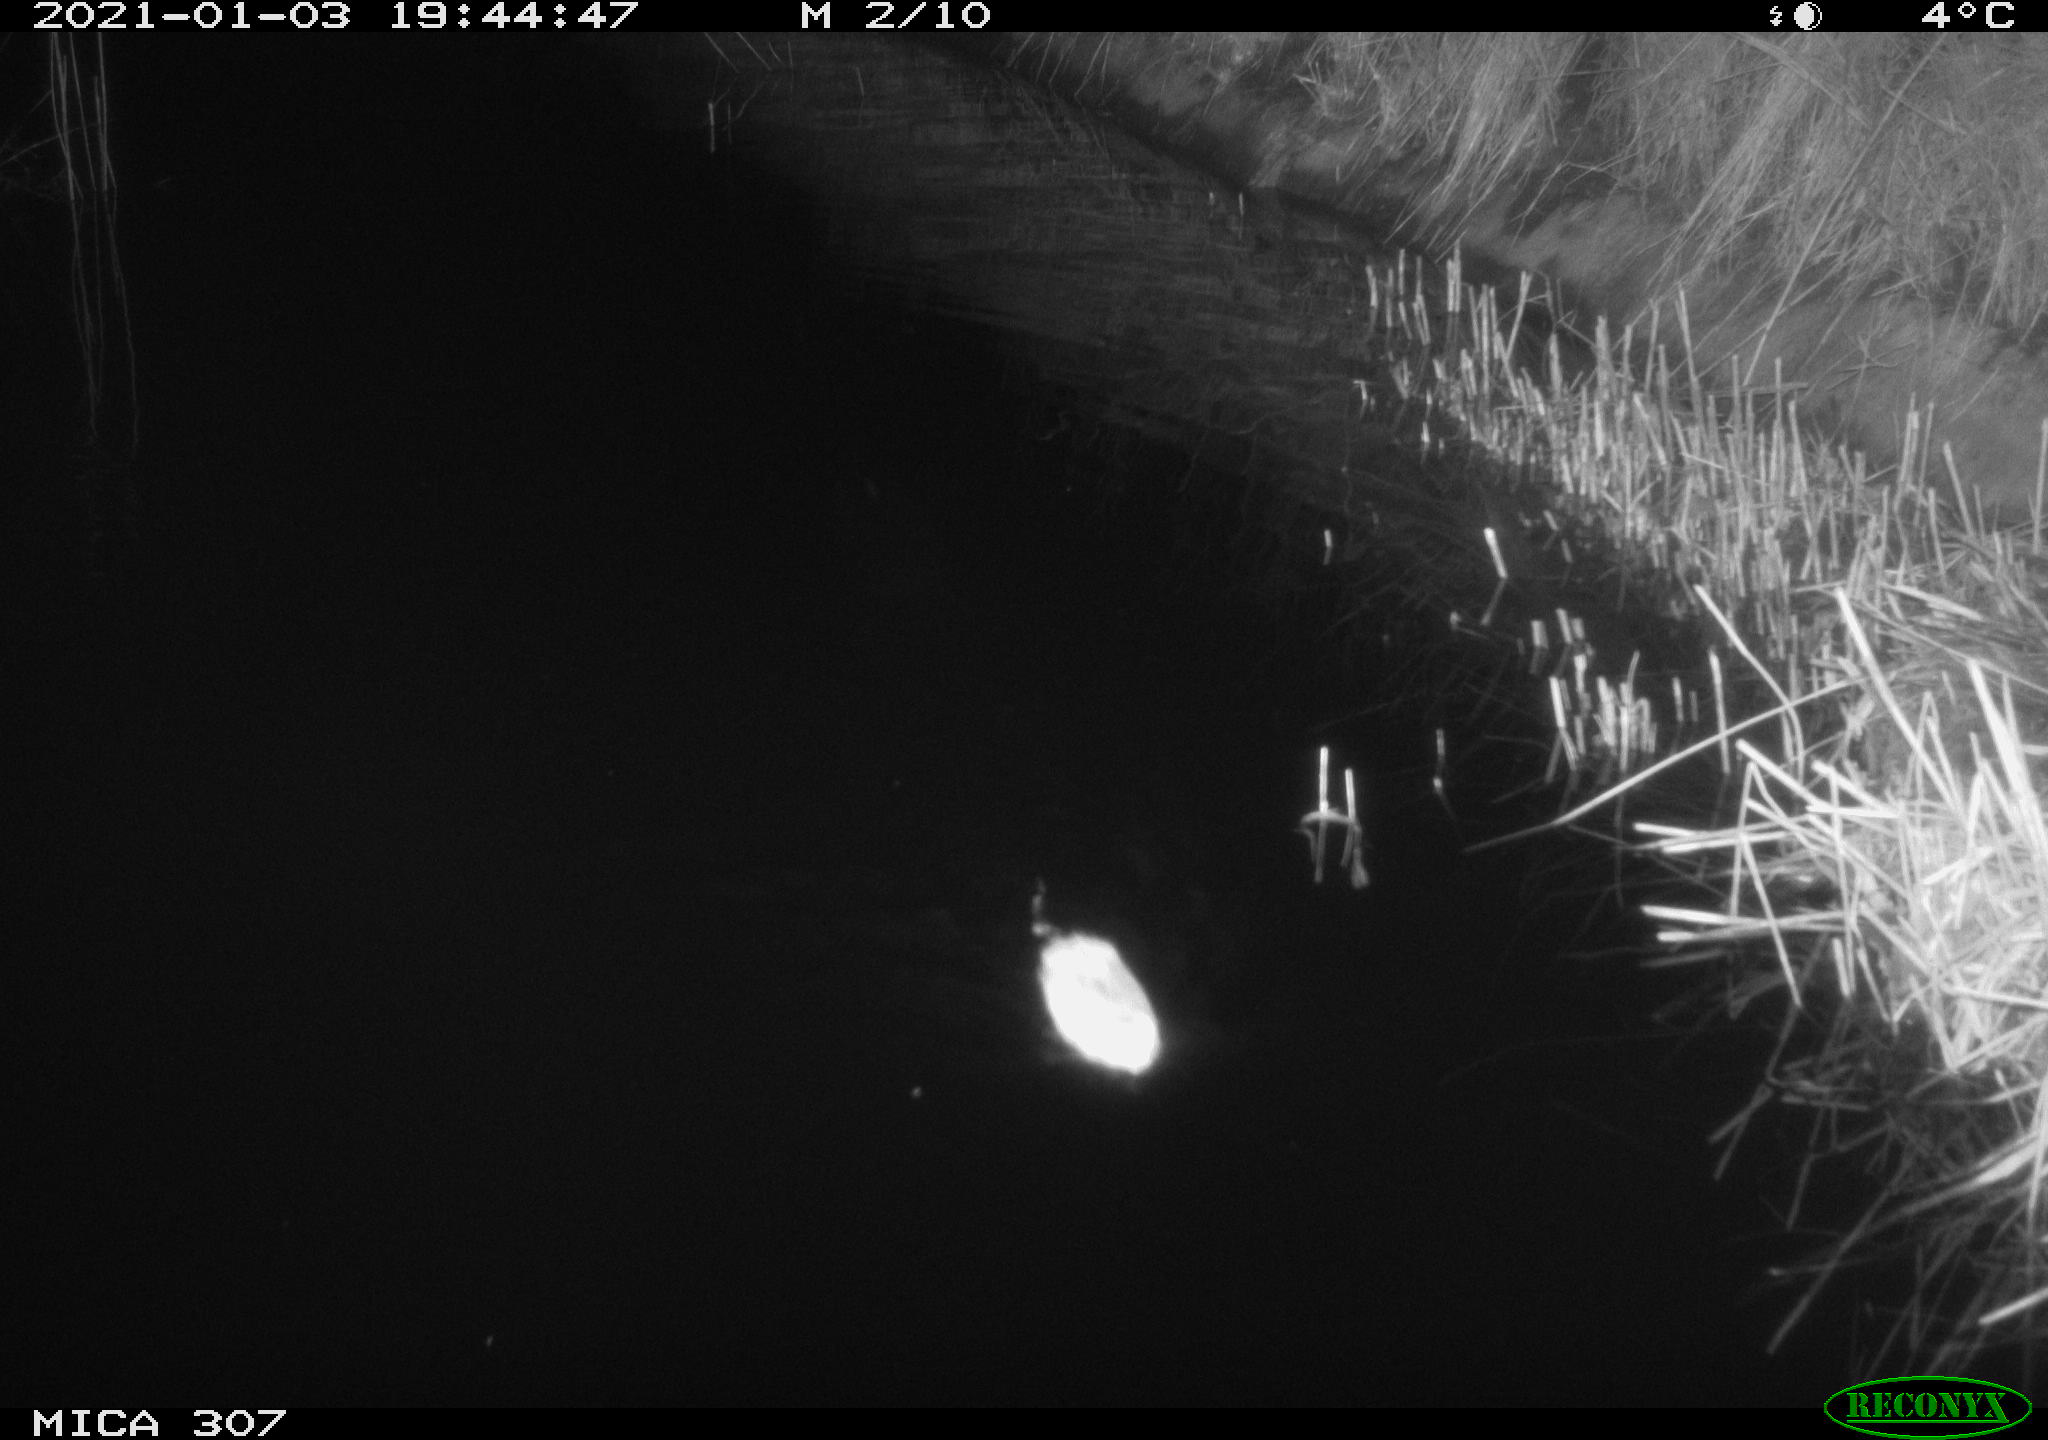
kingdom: Animalia
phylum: Chordata
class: Mammalia
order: Rodentia
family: Cricetidae
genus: Ondatra
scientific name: Ondatra zibethicus
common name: Muskrat
